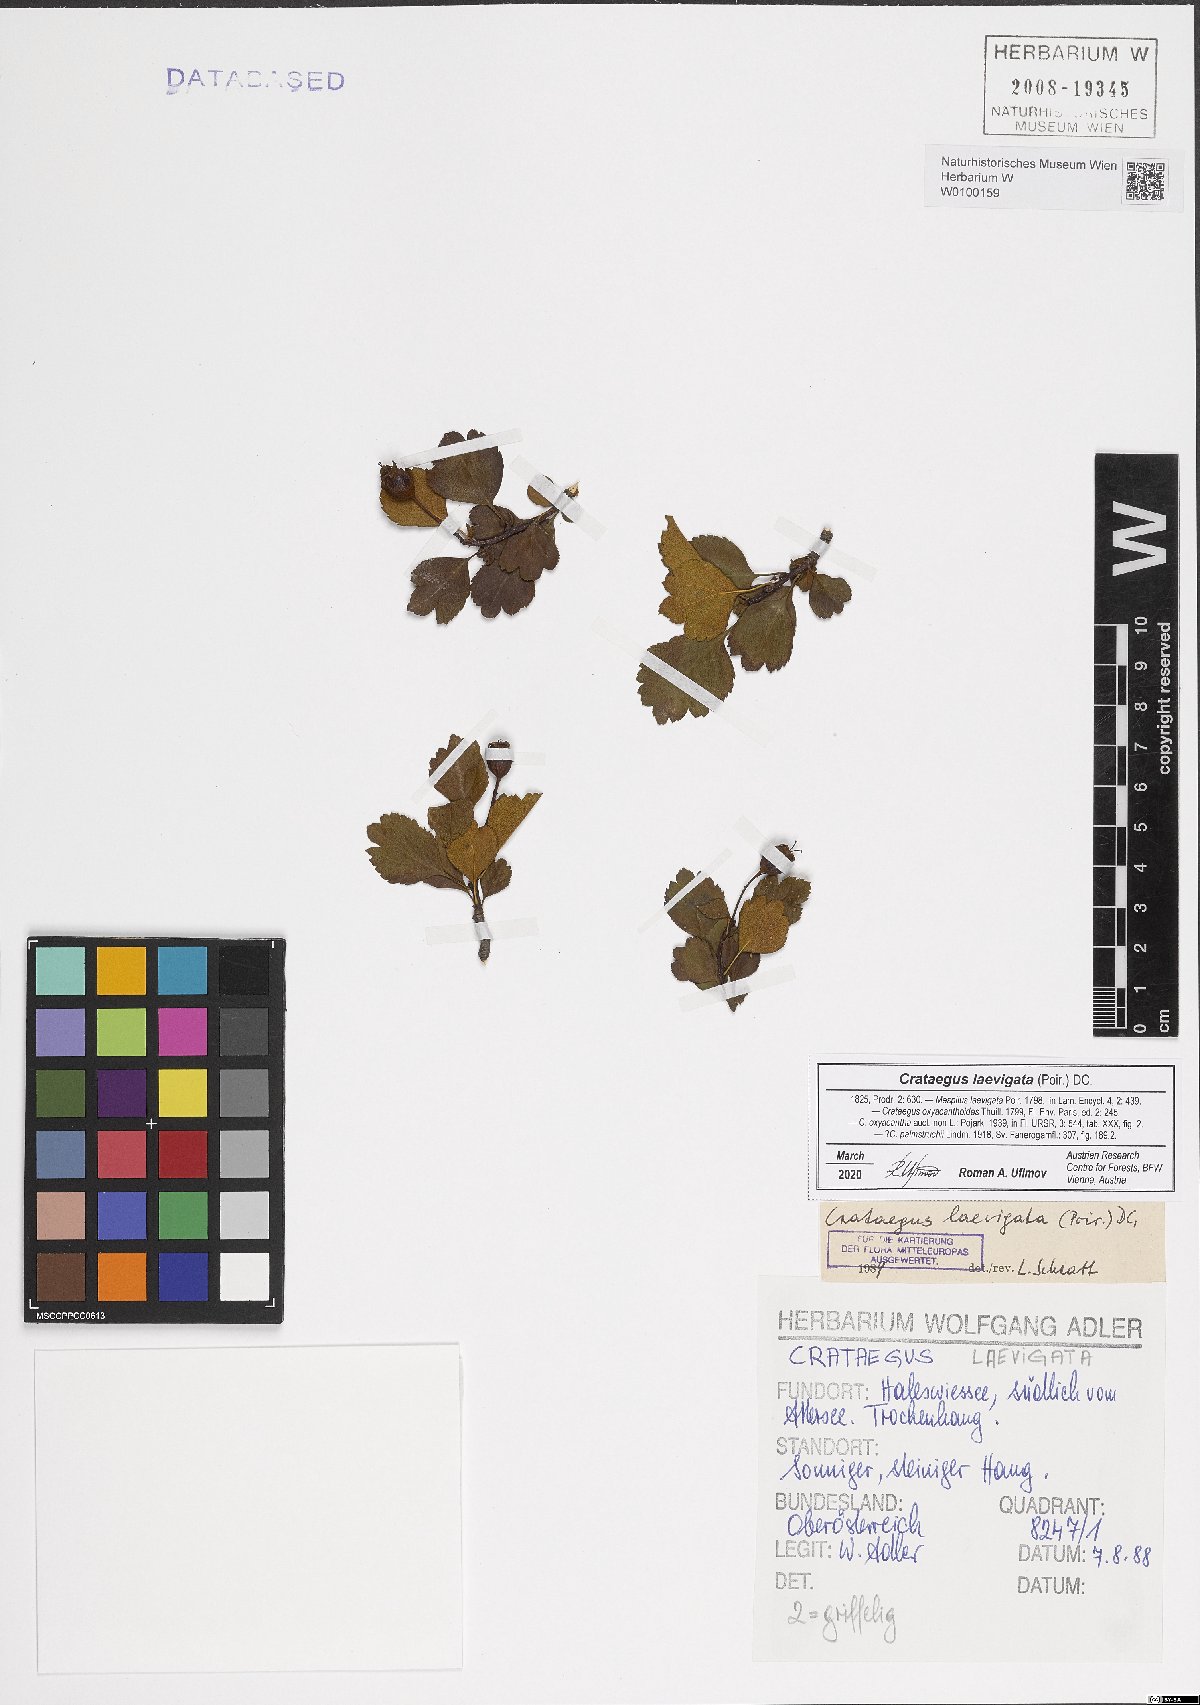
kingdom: Plantae
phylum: Tracheophyta
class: Magnoliopsida
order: Rosales
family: Rosaceae
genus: Crataegus
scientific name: Crataegus laevigata
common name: Midland hawthorn
